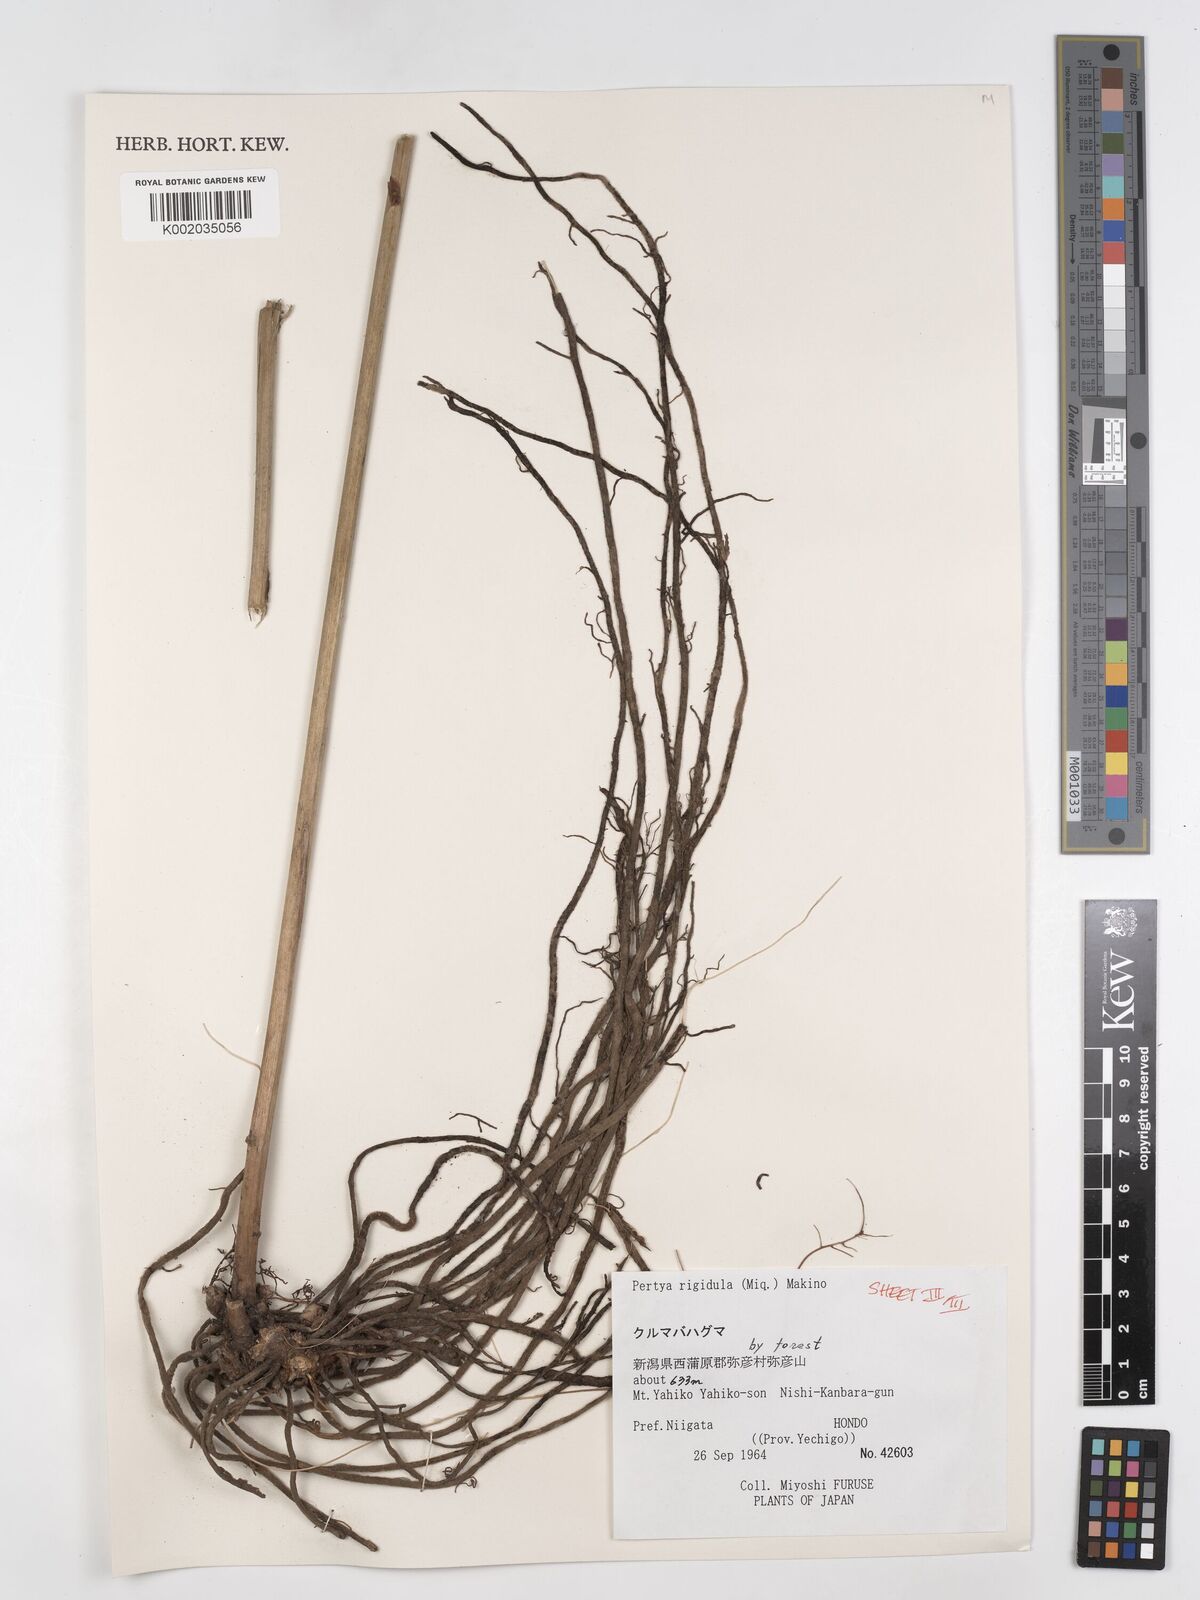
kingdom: Plantae
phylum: Tracheophyta
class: Magnoliopsida
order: Asterales
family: Asteraceae
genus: Pertya
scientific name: Pertya rigidula
